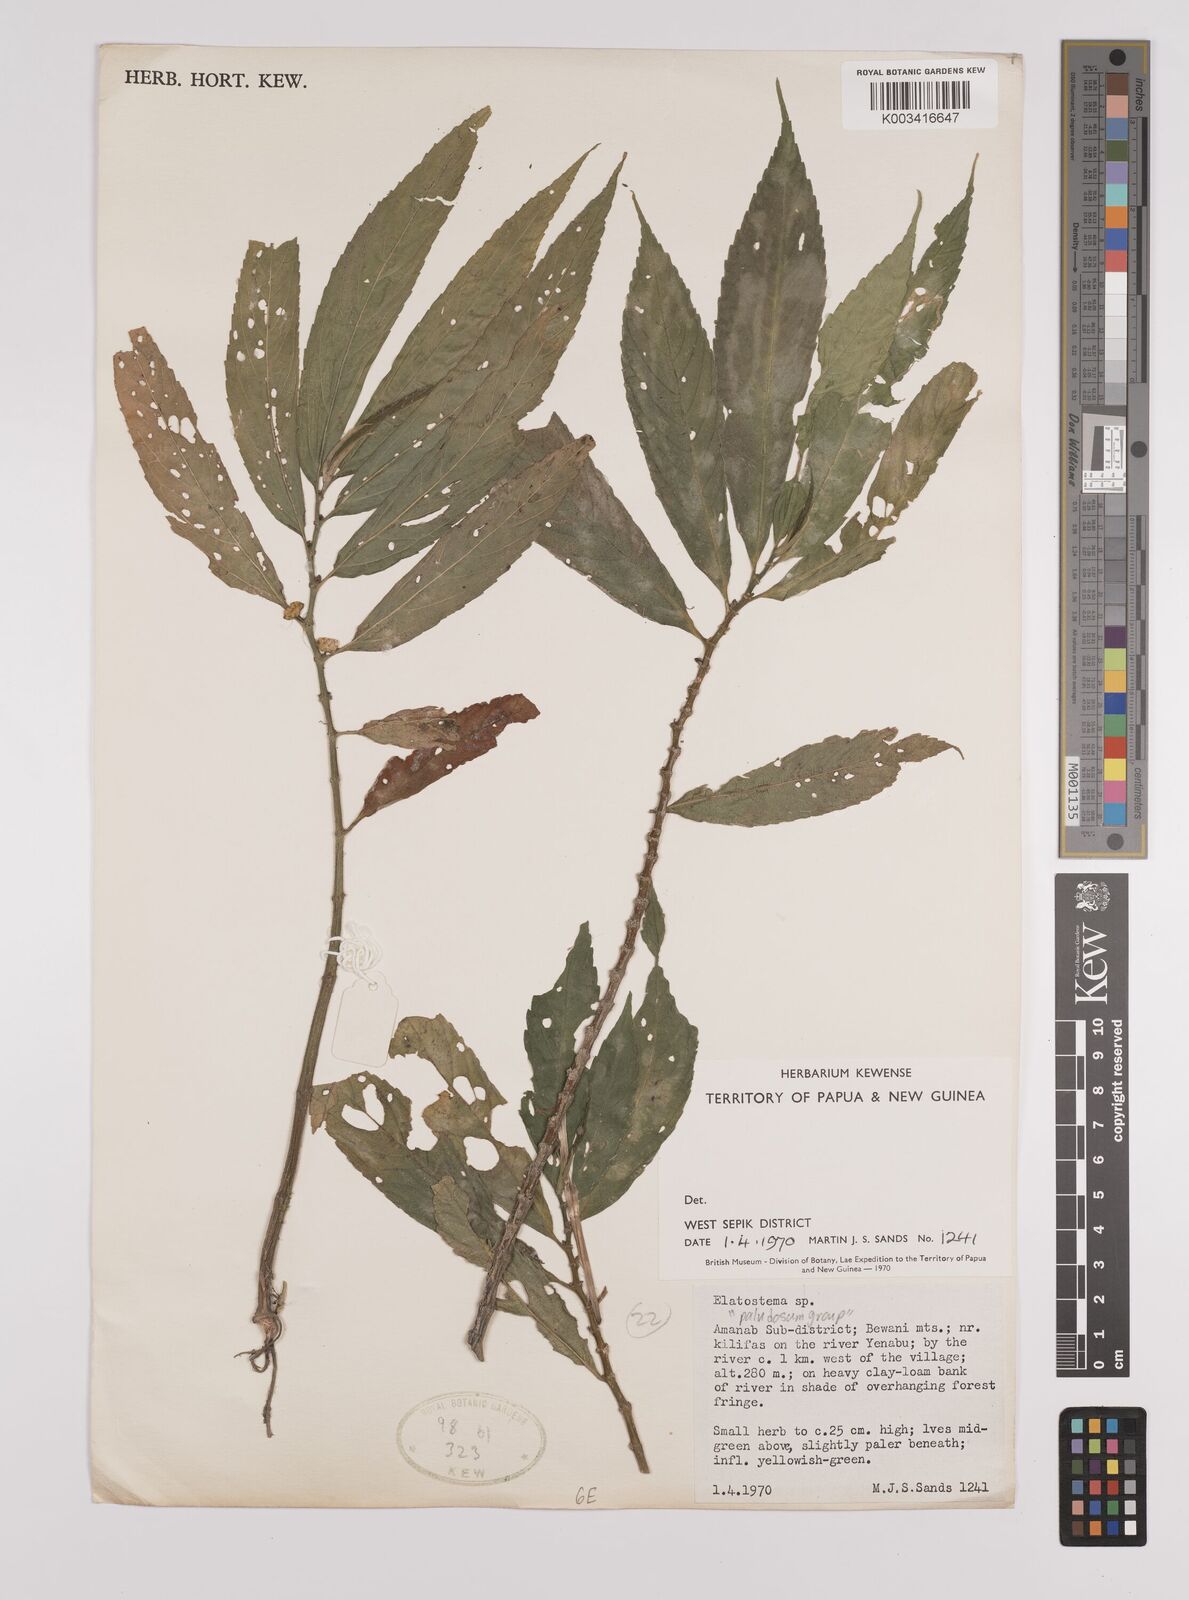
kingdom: Plantae
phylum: Tracheophyta
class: Magnoliopsida
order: Rosales
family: Urticaceae
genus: Elatostema
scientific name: Elatostema
